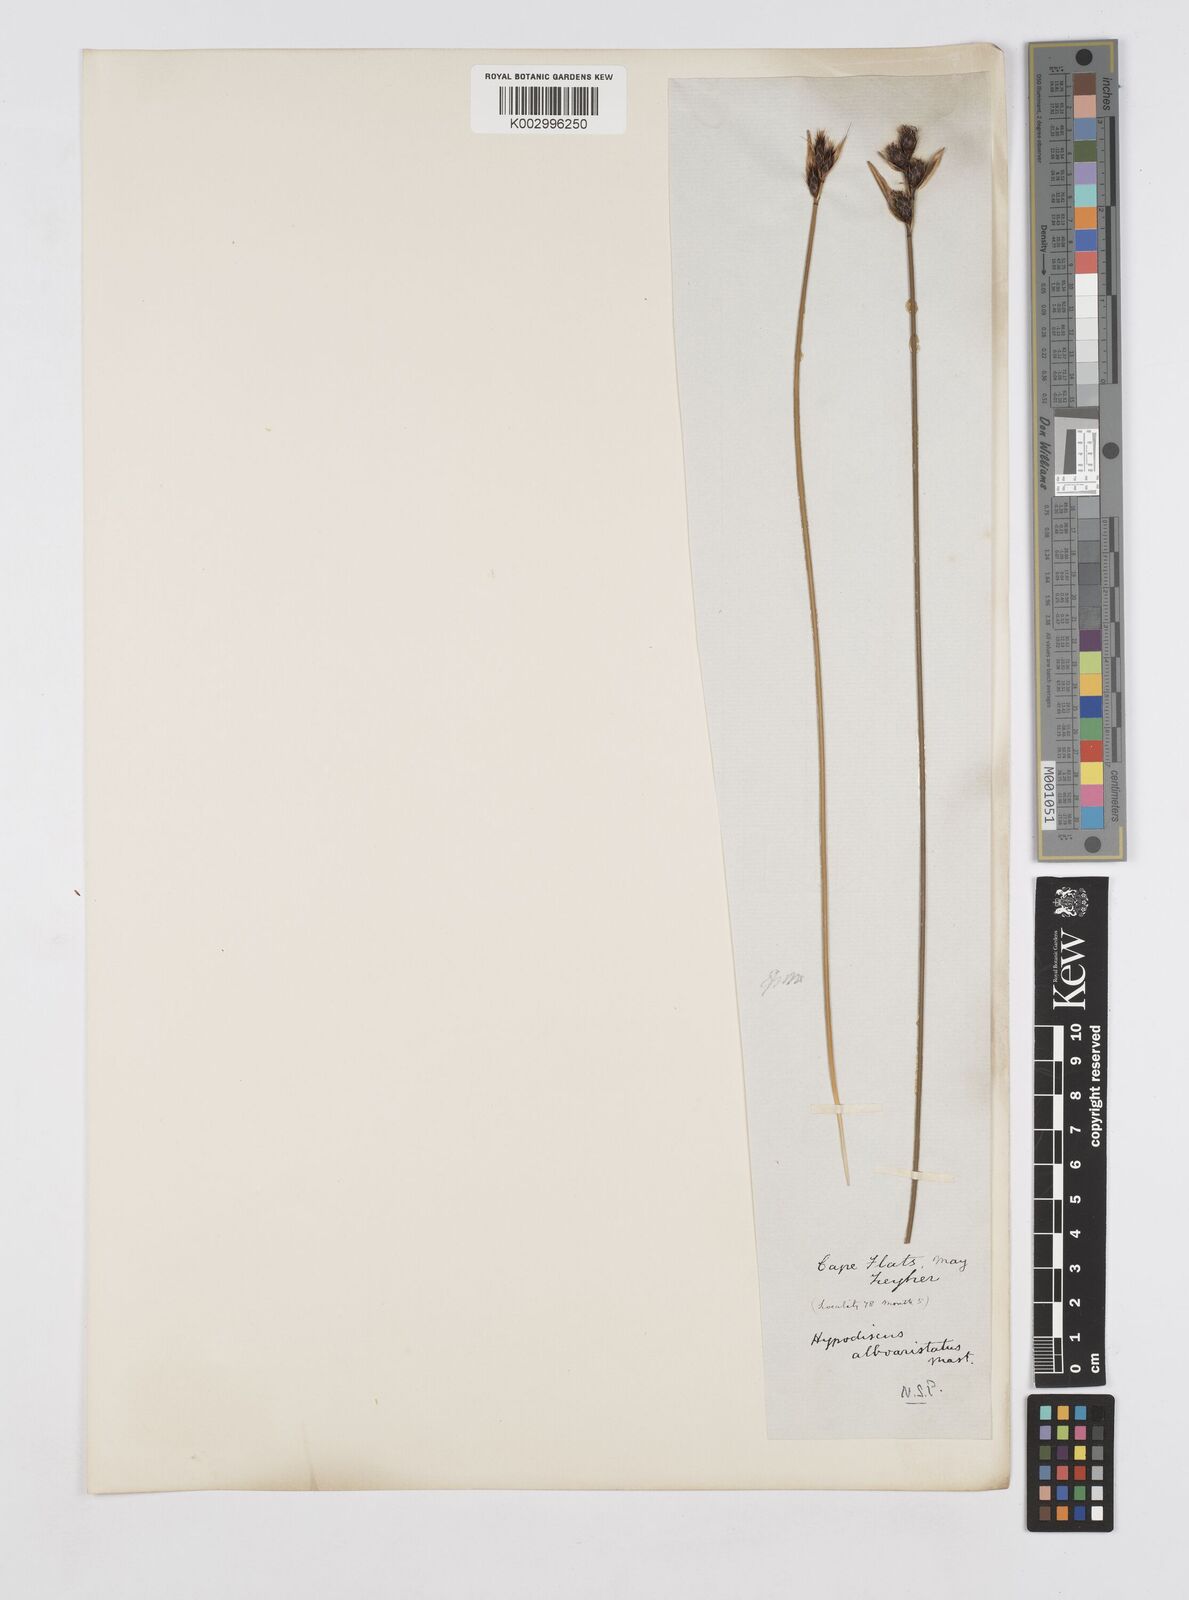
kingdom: Plantae
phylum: Tracheophyta
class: Liliopsida
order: Poales
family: Restionaceae
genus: Hypodiscus
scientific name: Hypodiscus alboaristatus
